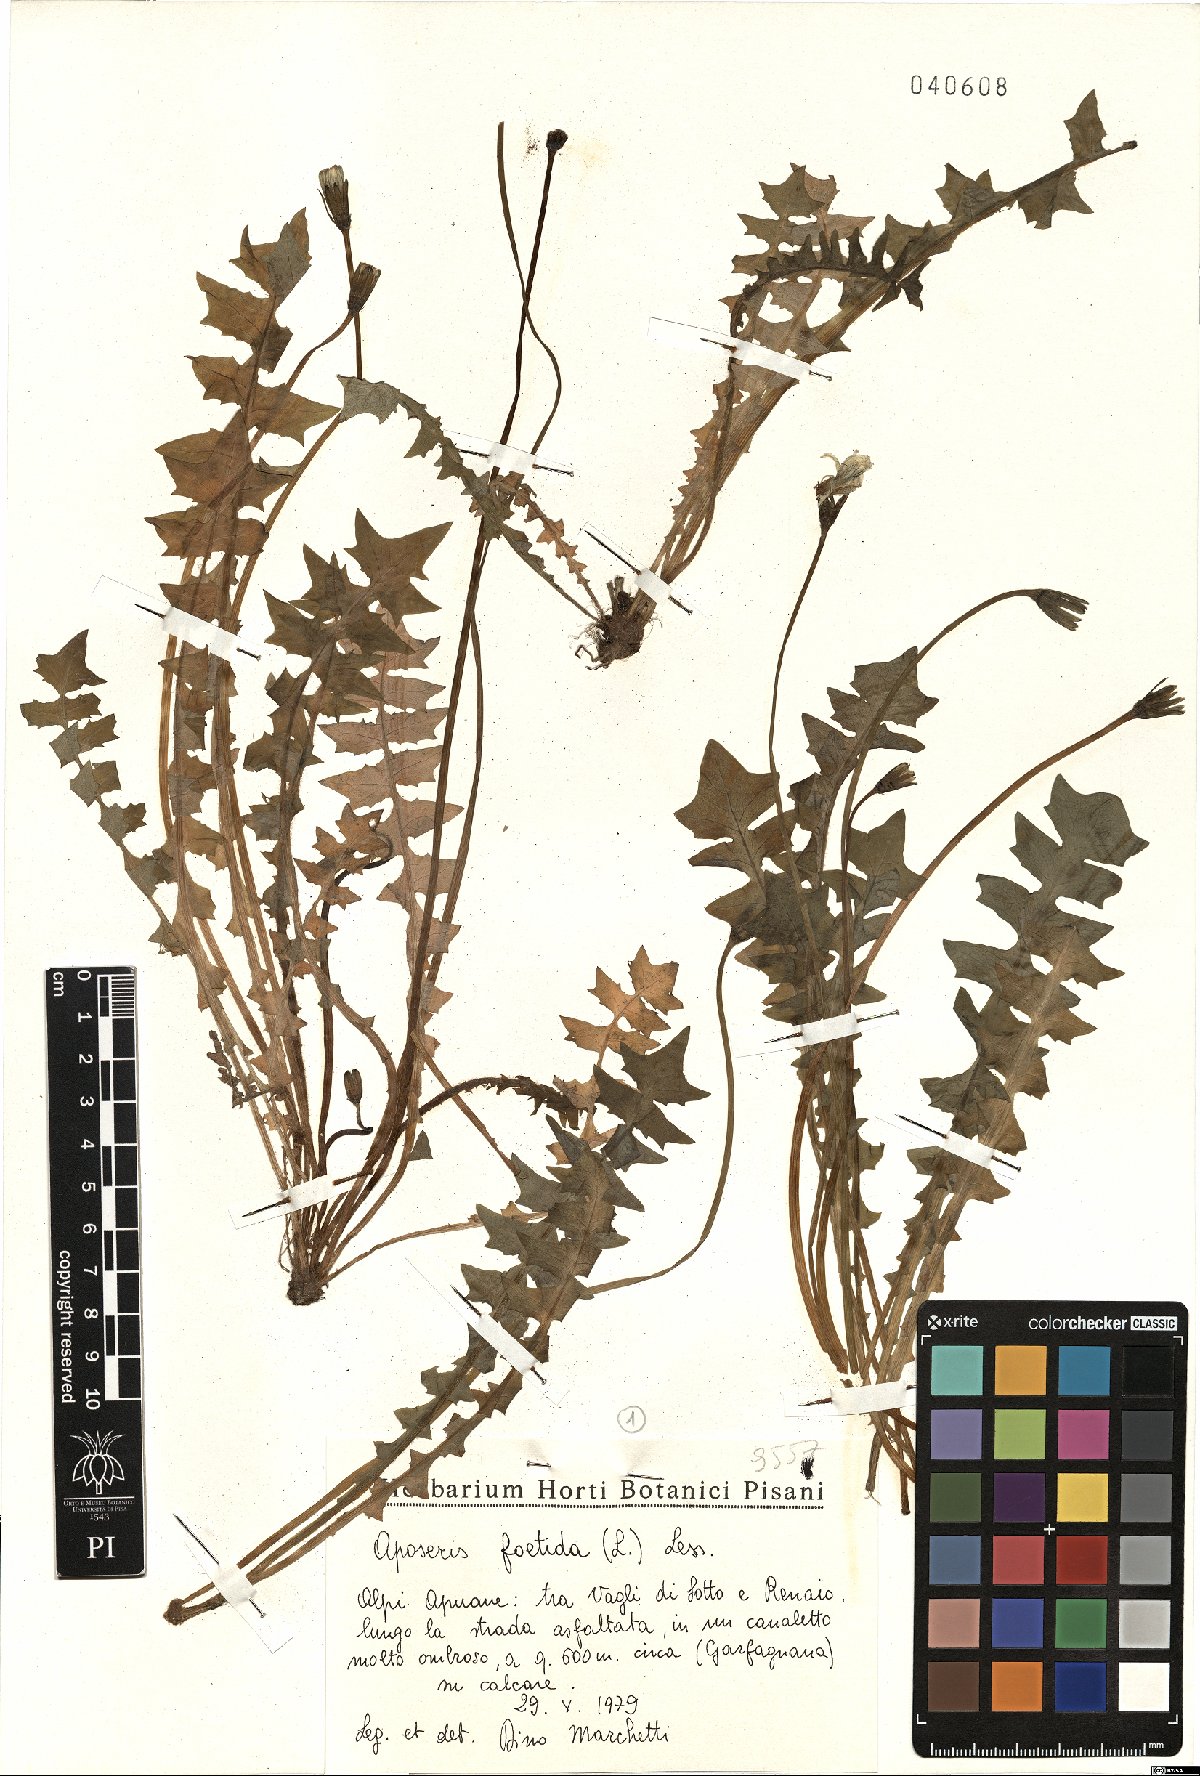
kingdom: Plantae
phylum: Tracheophyta
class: Magnoliopsida
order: Asterales
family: Asteraceae
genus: Aposeris
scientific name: Aposeris foetida
